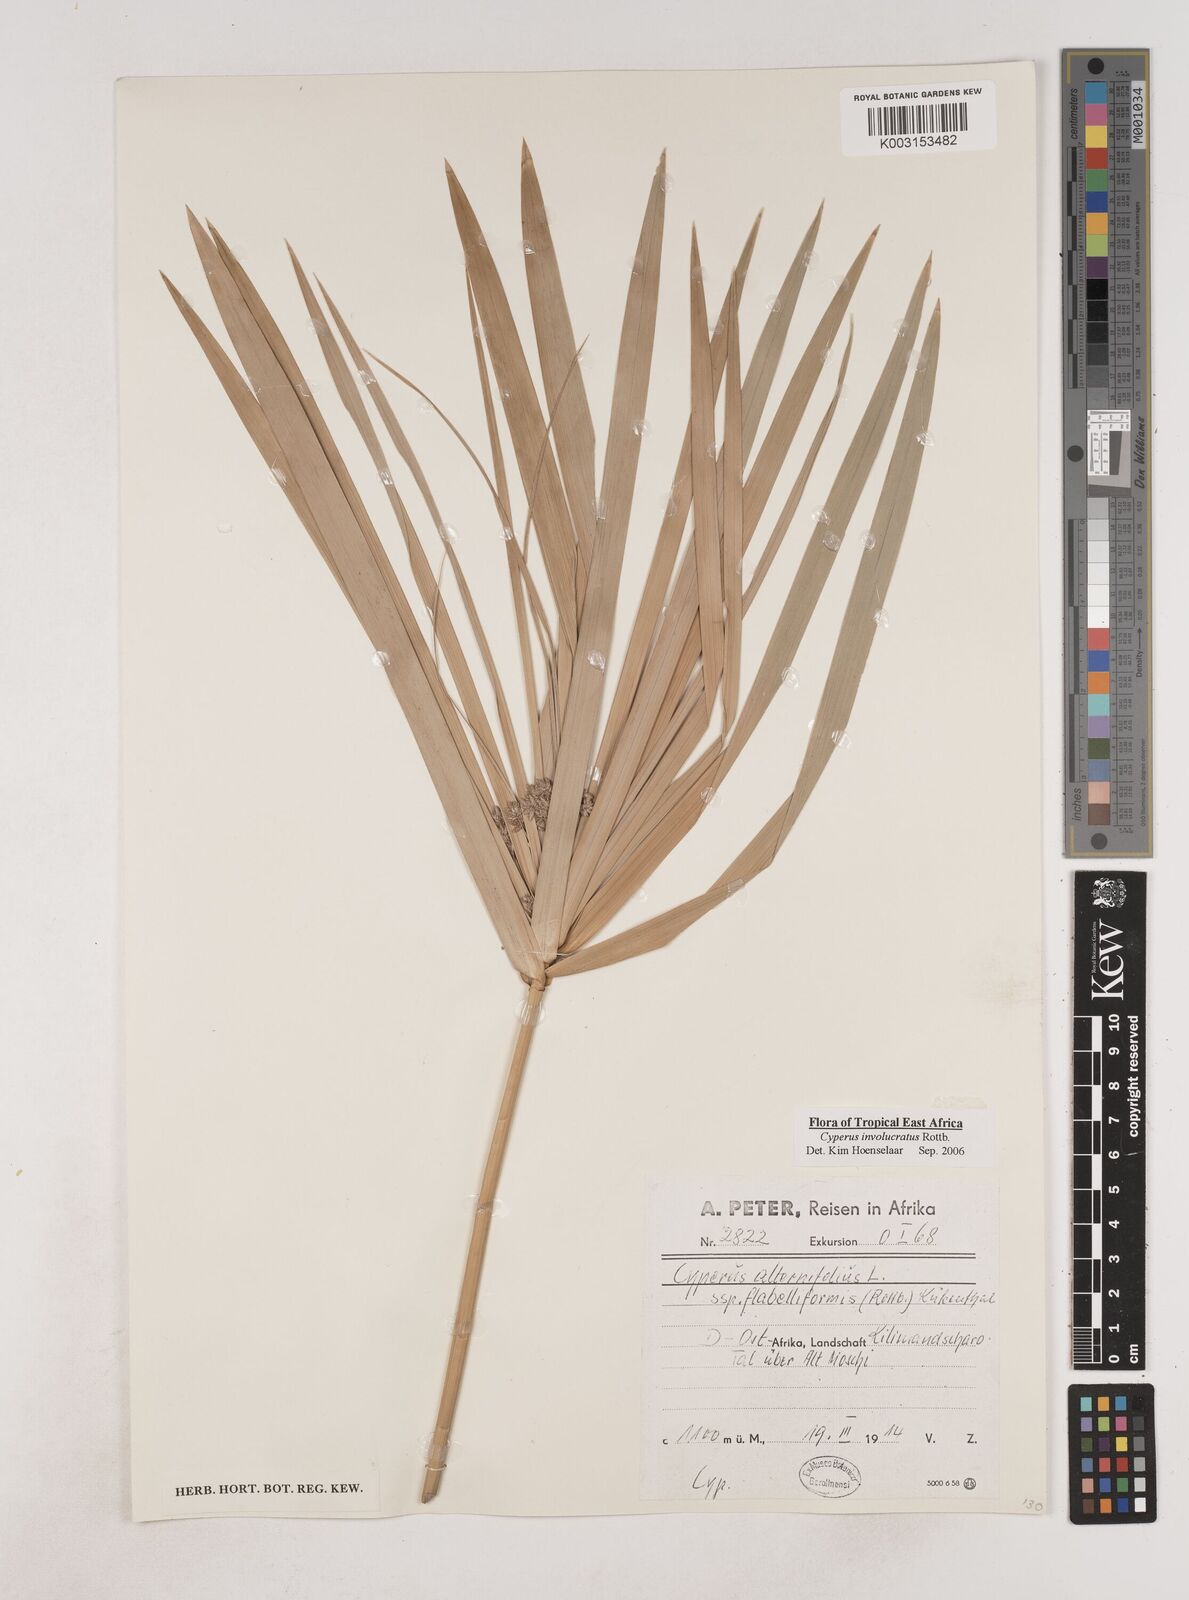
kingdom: Plantae
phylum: Tracheophyta
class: Liliopsida
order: Poales
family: Cyperaceae
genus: Cyperus
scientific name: Cyperus alternifolius
